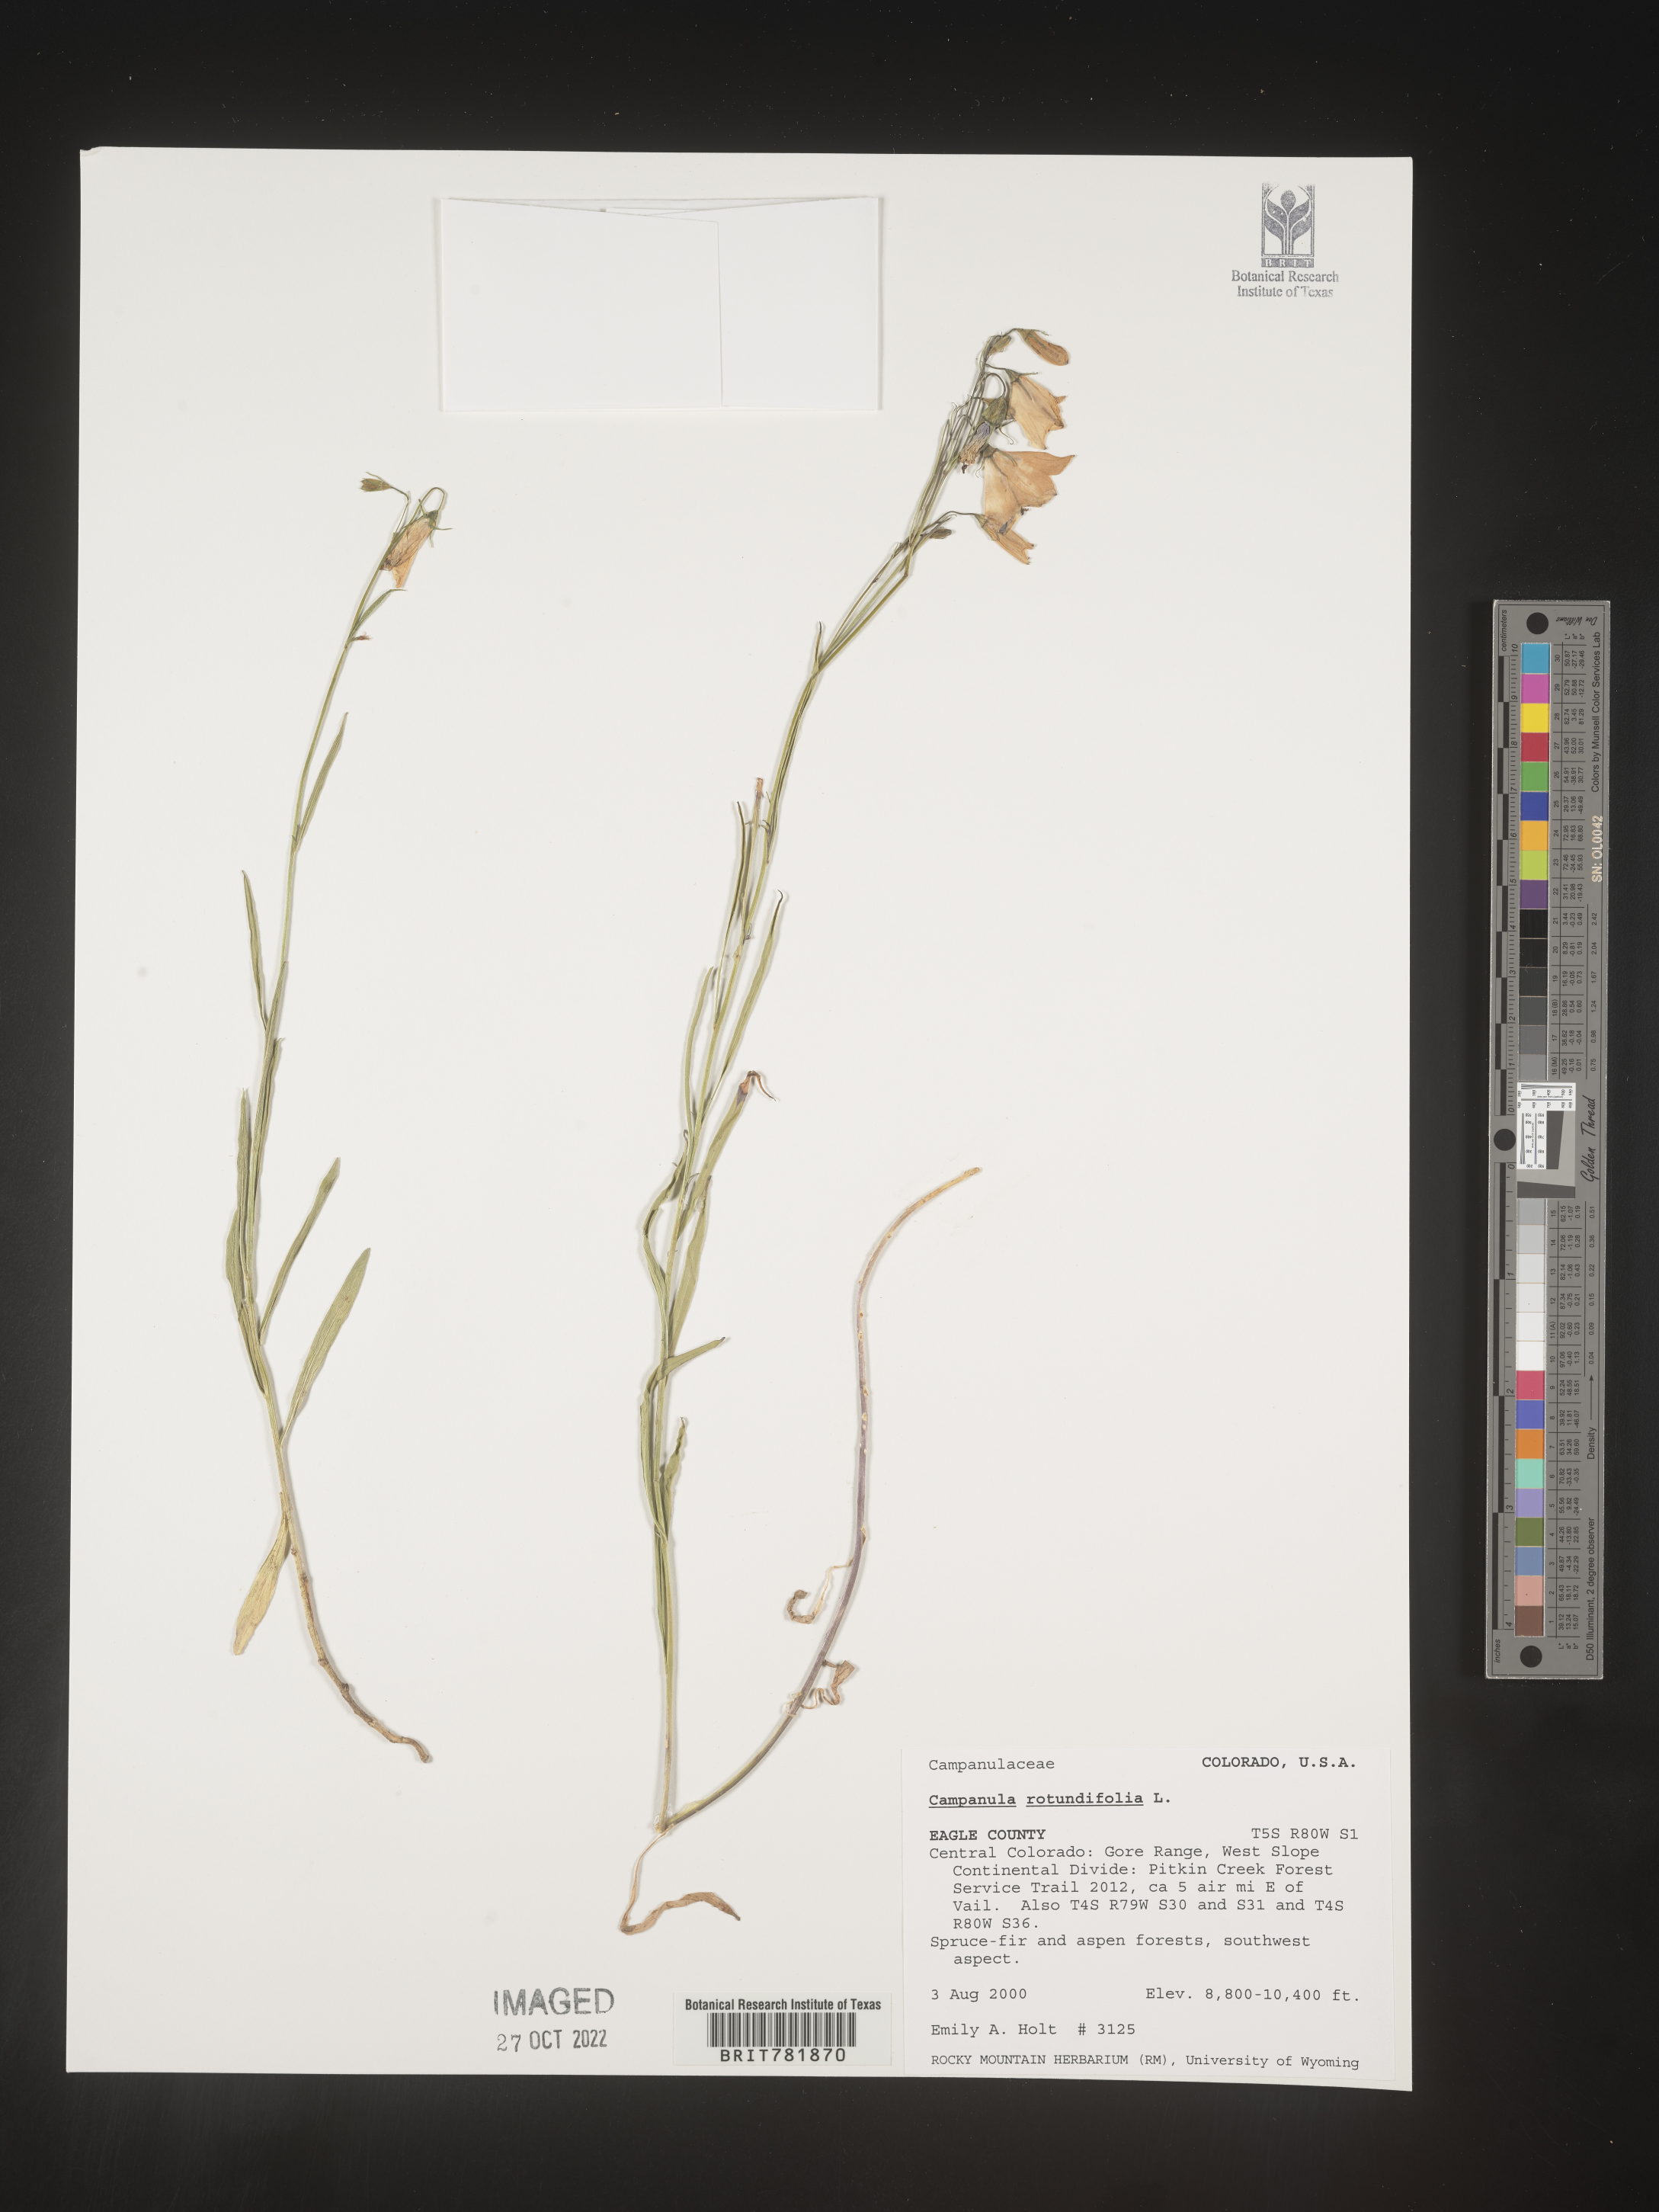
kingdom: Plantae
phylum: Tracheophyta
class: Magnoliopsida
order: Asterales
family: Campanulaceae
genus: Campanula
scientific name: Campanula rotundifolia
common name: Harebell
